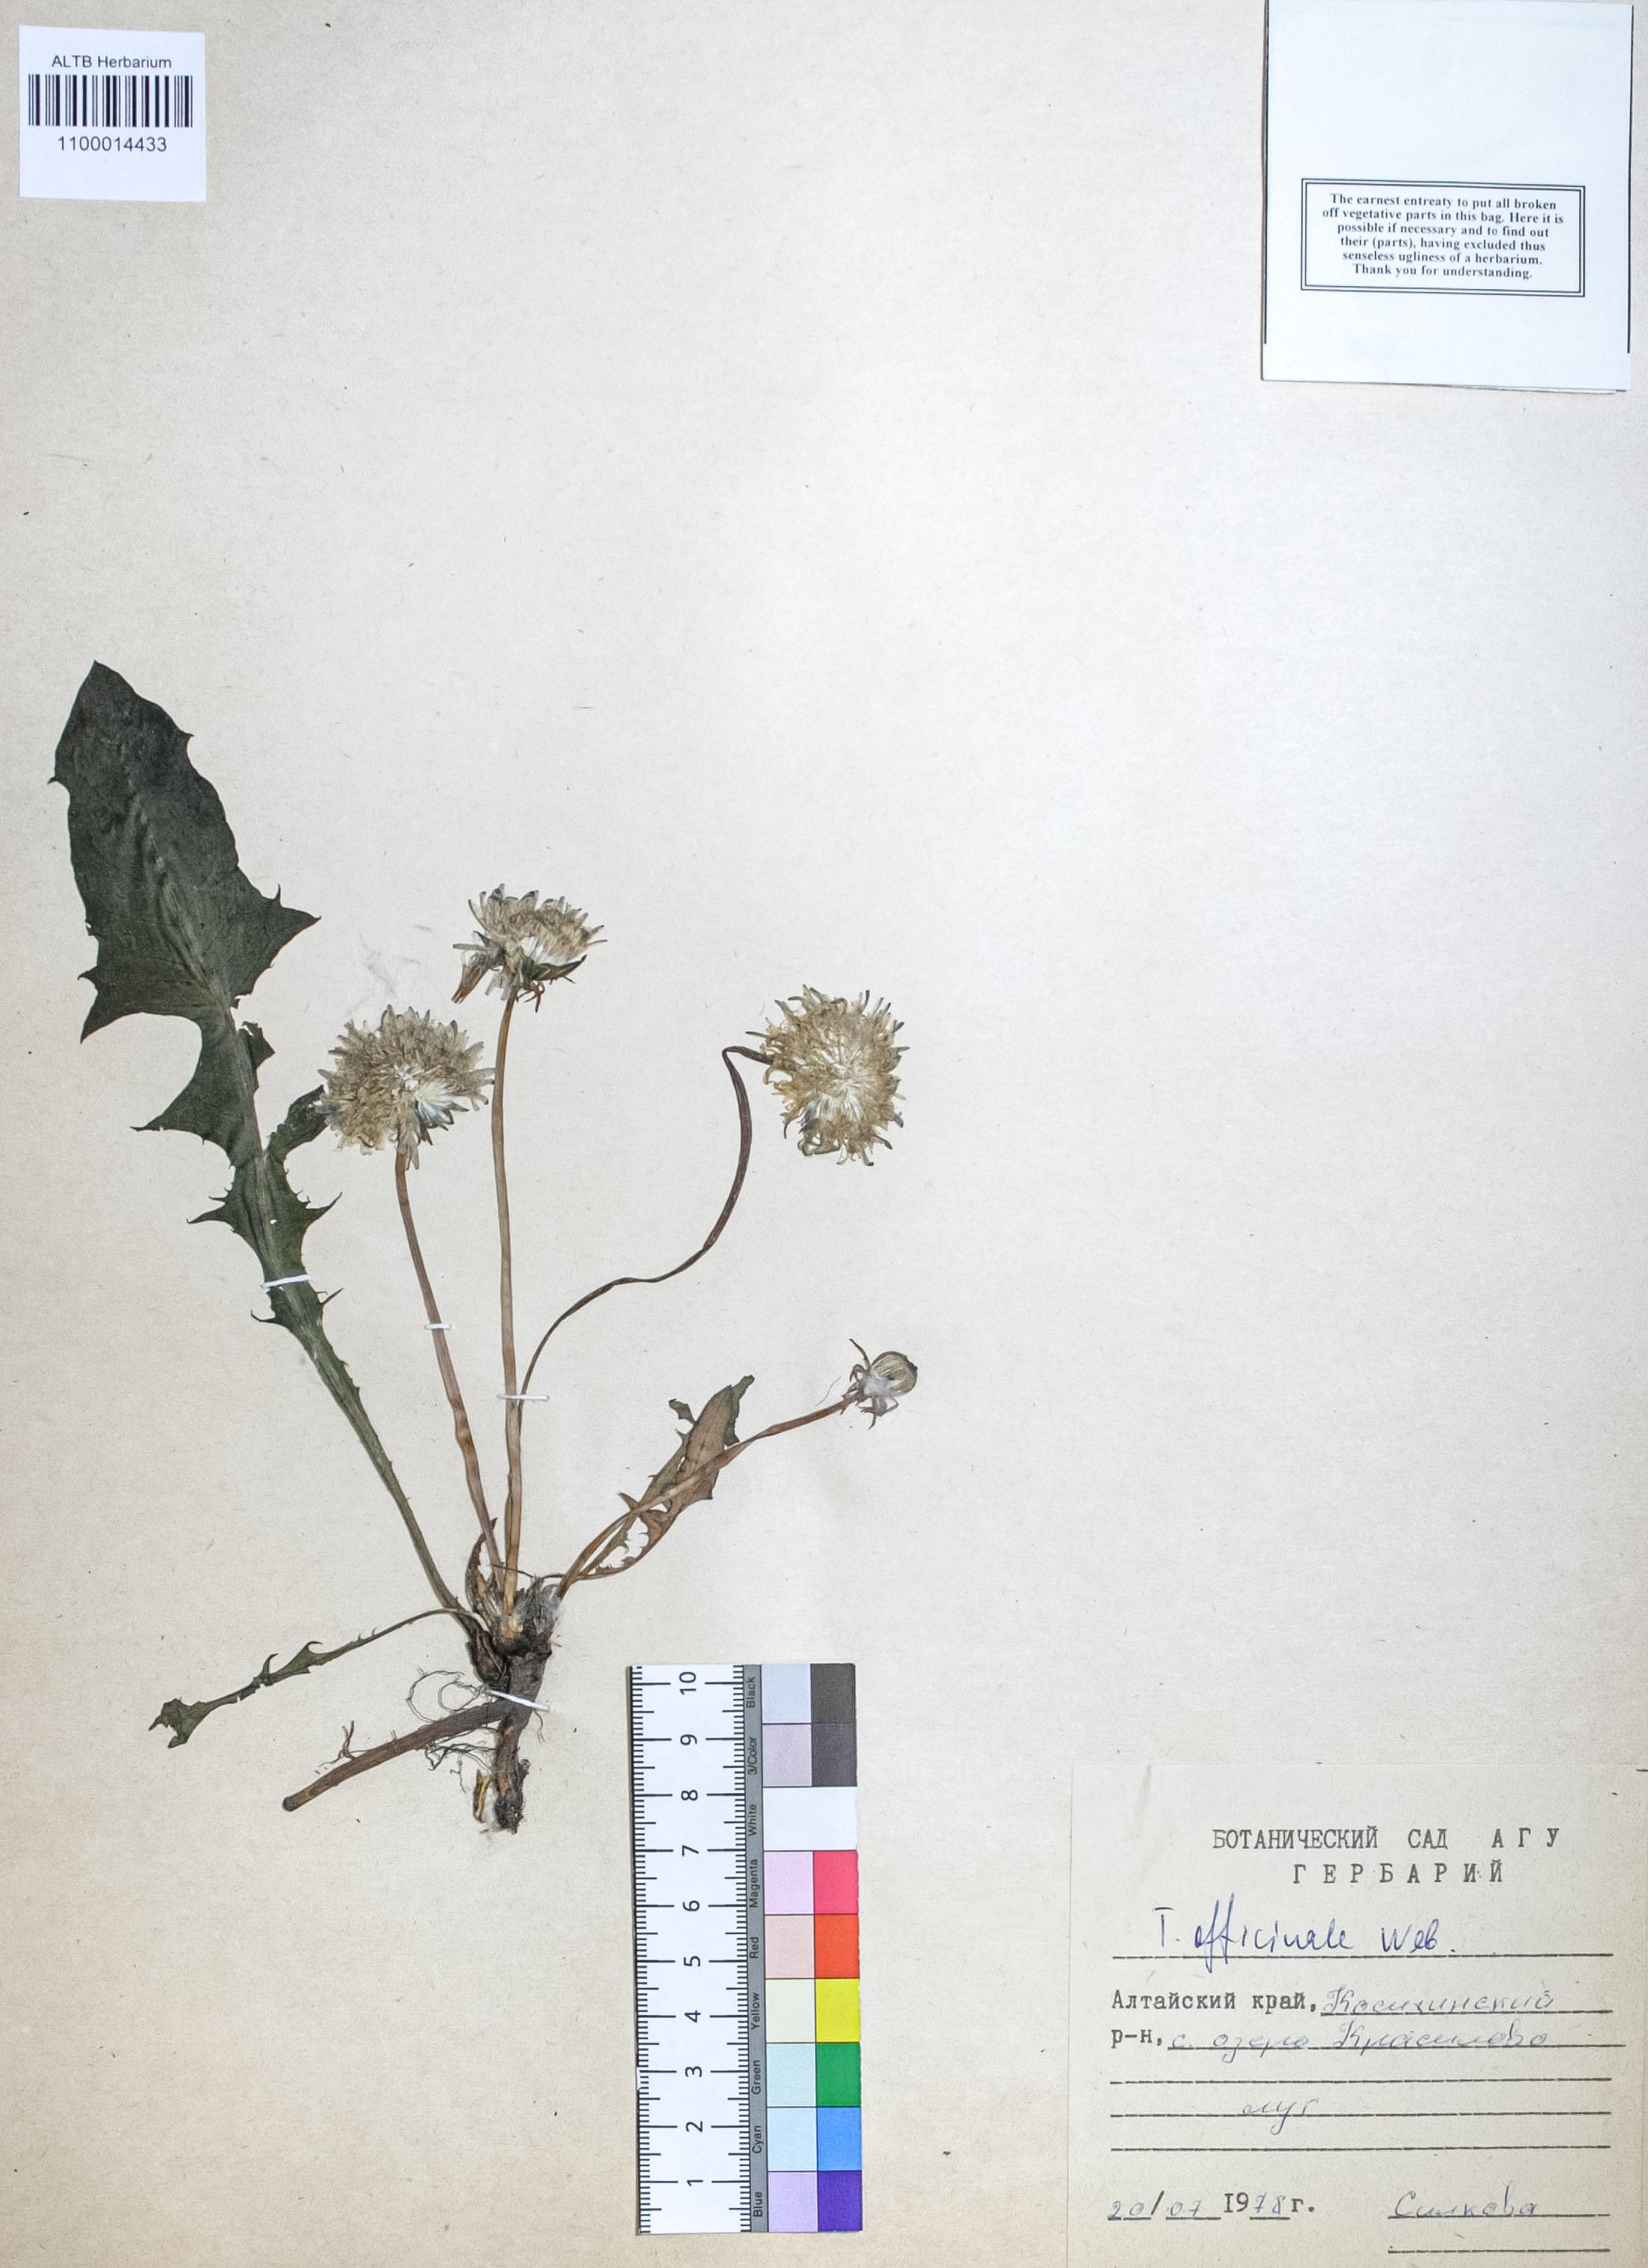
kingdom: Plantae
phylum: Tracheophyta
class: Magnoliopsida
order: Asterales
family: Asteraceae
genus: Taraxacum
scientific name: Taraxacum officinale
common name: Common dandelion
